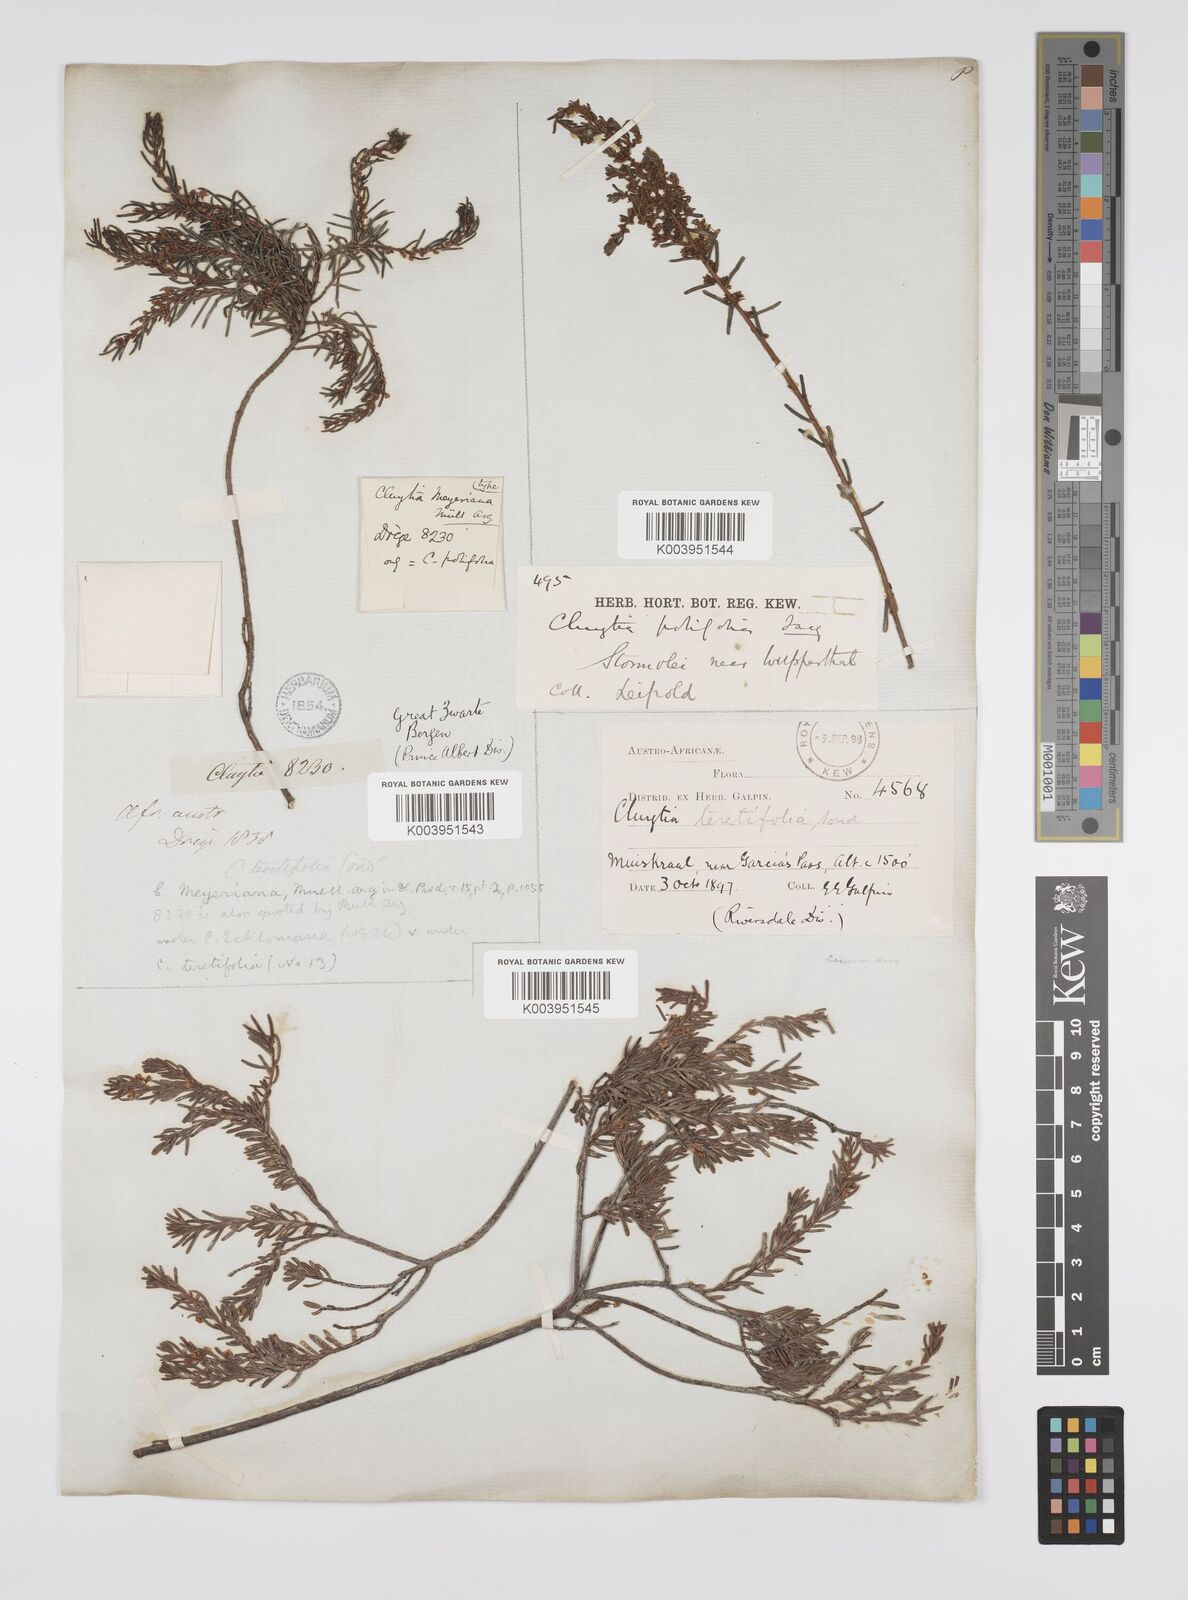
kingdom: Plantae
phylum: Tracheophyta
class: Magnoliopsida
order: Malpighiales
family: Peraceae
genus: Clutia
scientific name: Clutia
